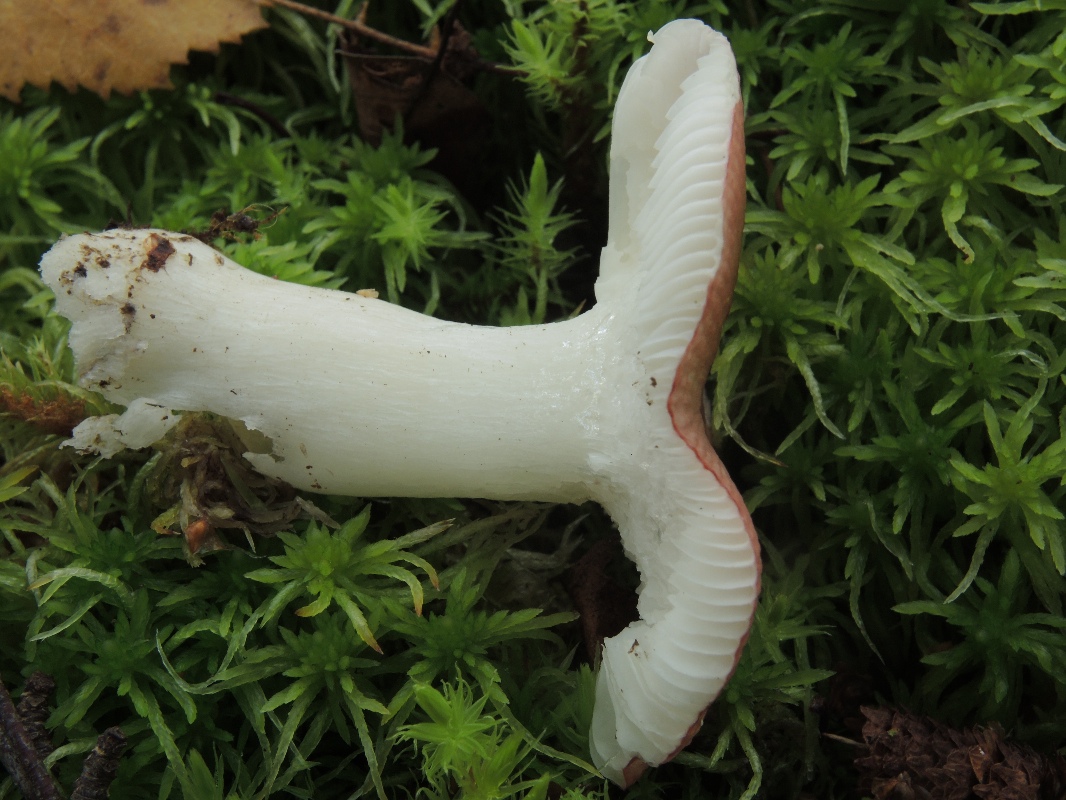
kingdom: Fungi
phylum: Basidiomycota
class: Agaricomycetes
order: Russulales
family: Russulaceae
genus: Russula
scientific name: Russula aquosa
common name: vand-skørhat
